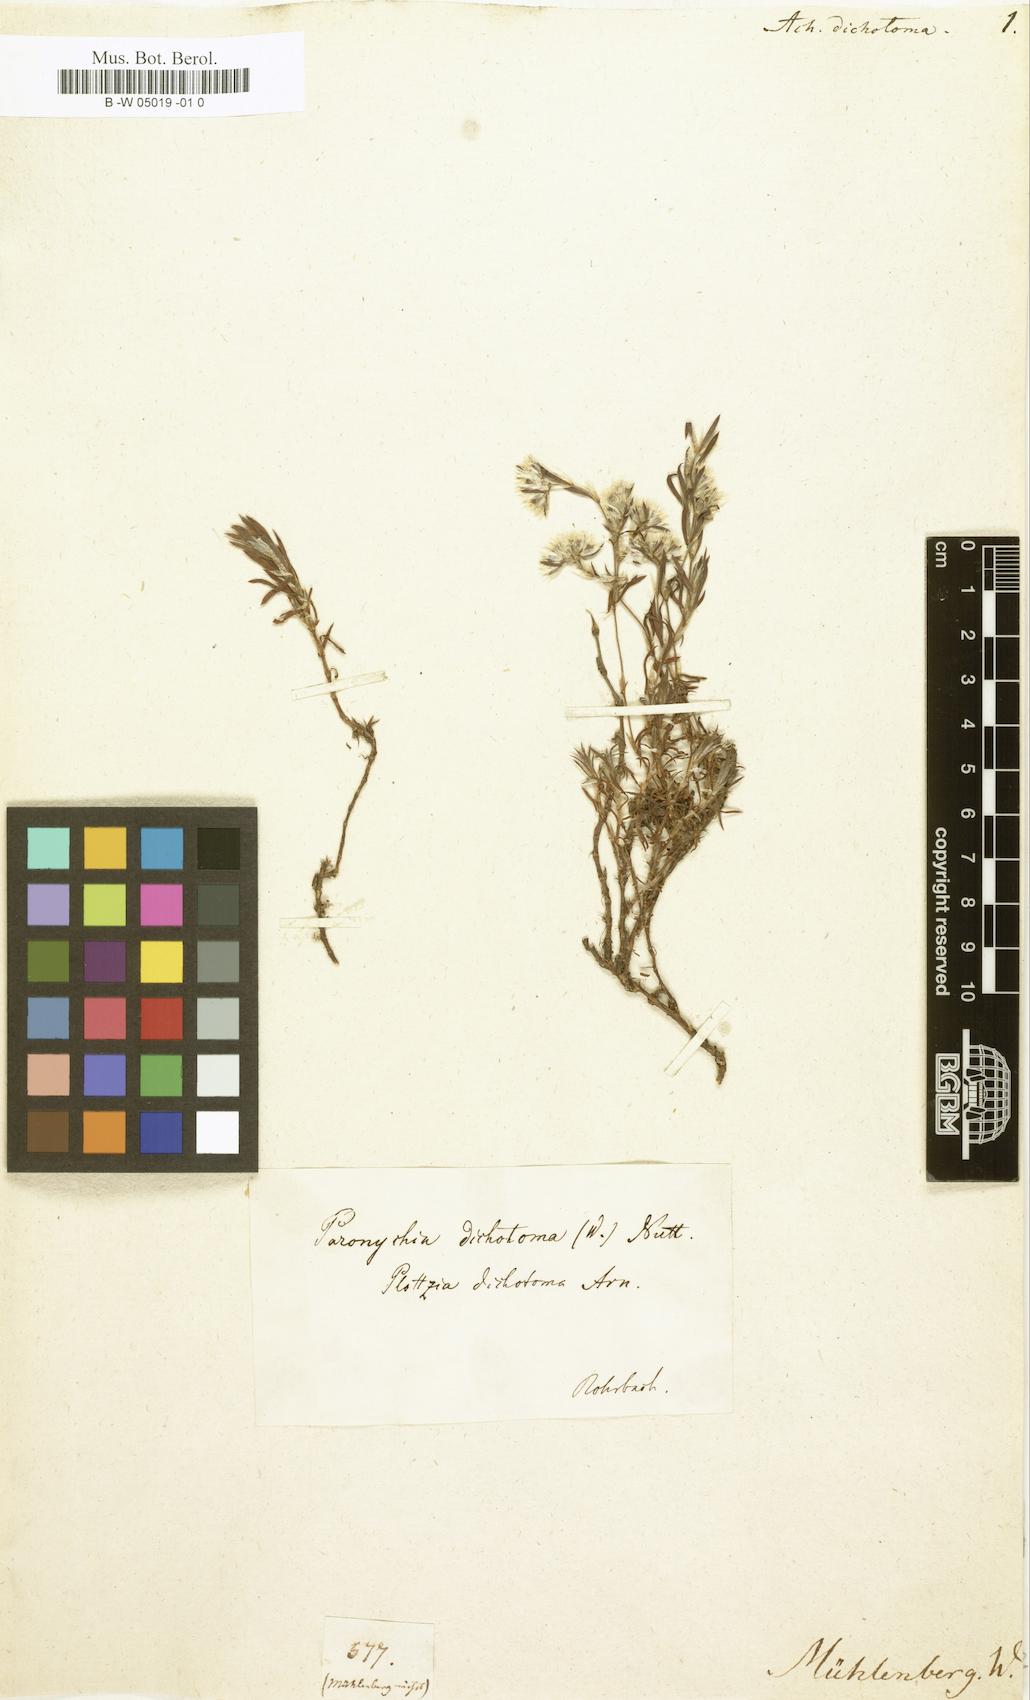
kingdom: Plantae
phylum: Tracheophyta
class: Magnoliopsida
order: Caryophyllales
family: Caryophyllaceae
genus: Paronychia
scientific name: Paronychia virginica
